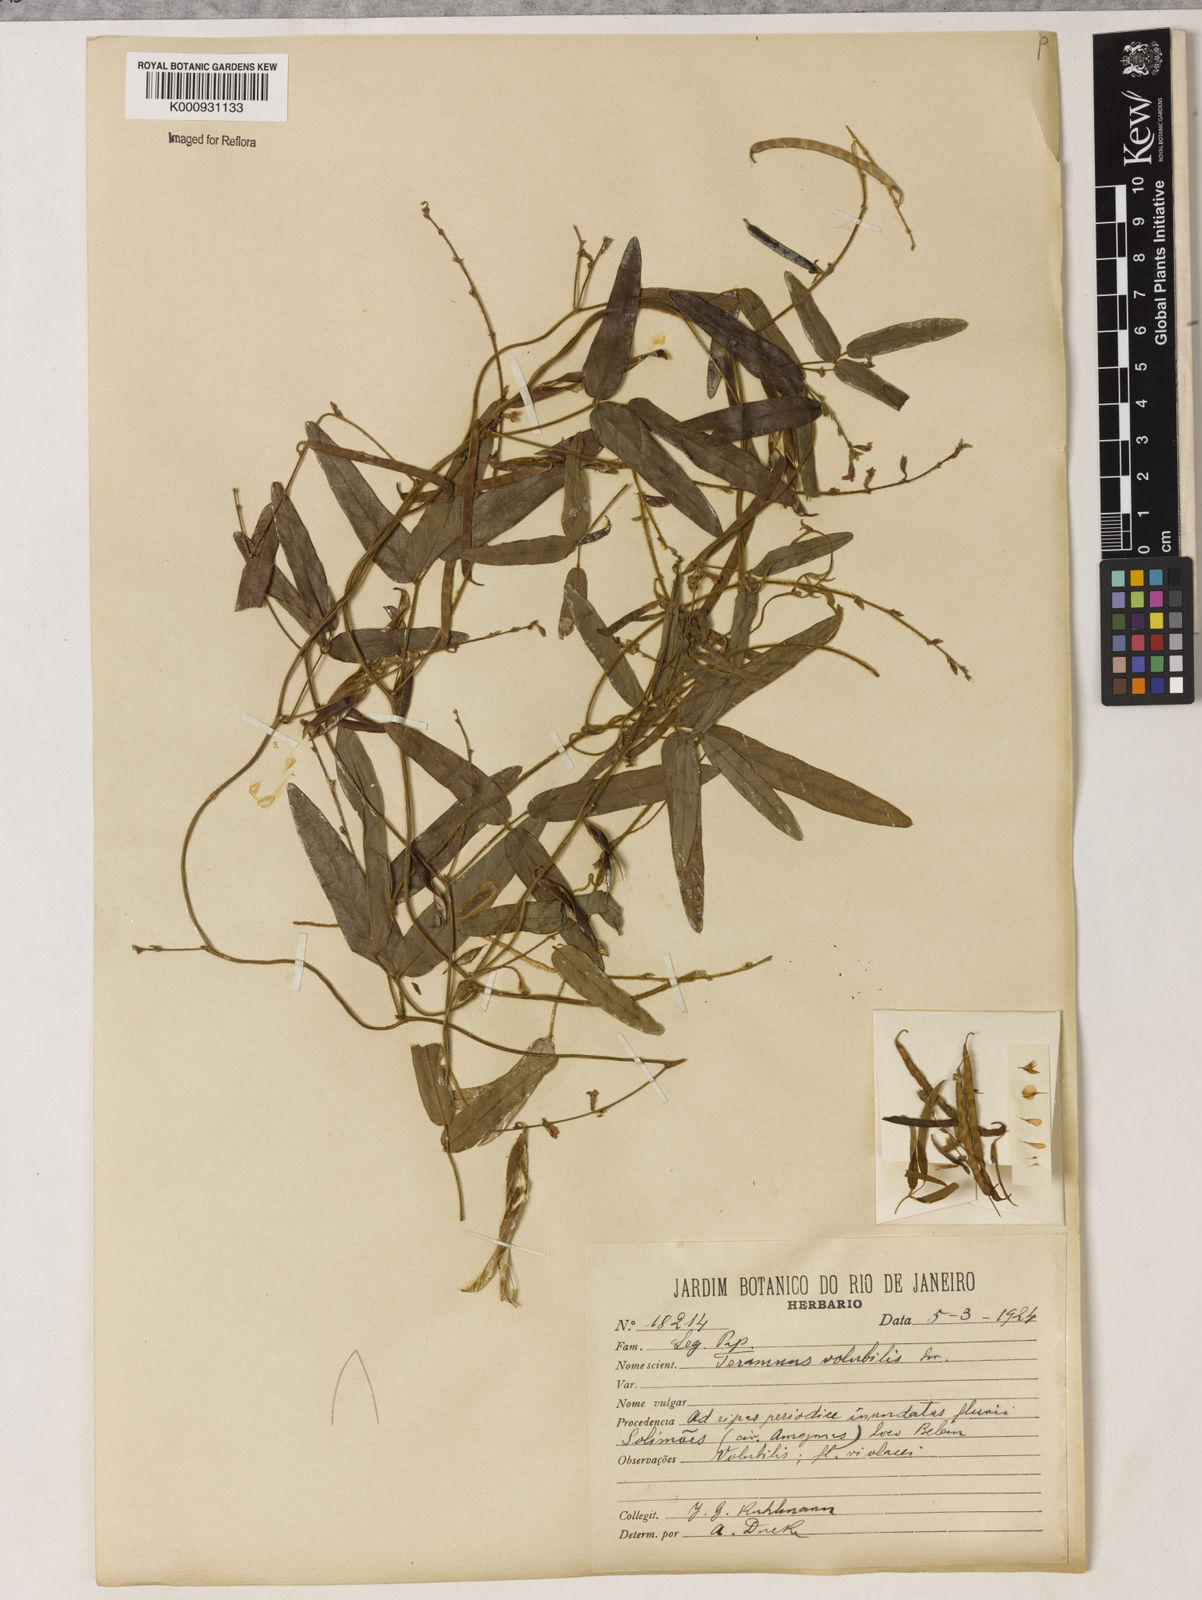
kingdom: Plantae
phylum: Tracheophyta
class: Magnoliopsida
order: Fabales
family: Fabaceae
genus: Teramnus
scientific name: Teramnus
